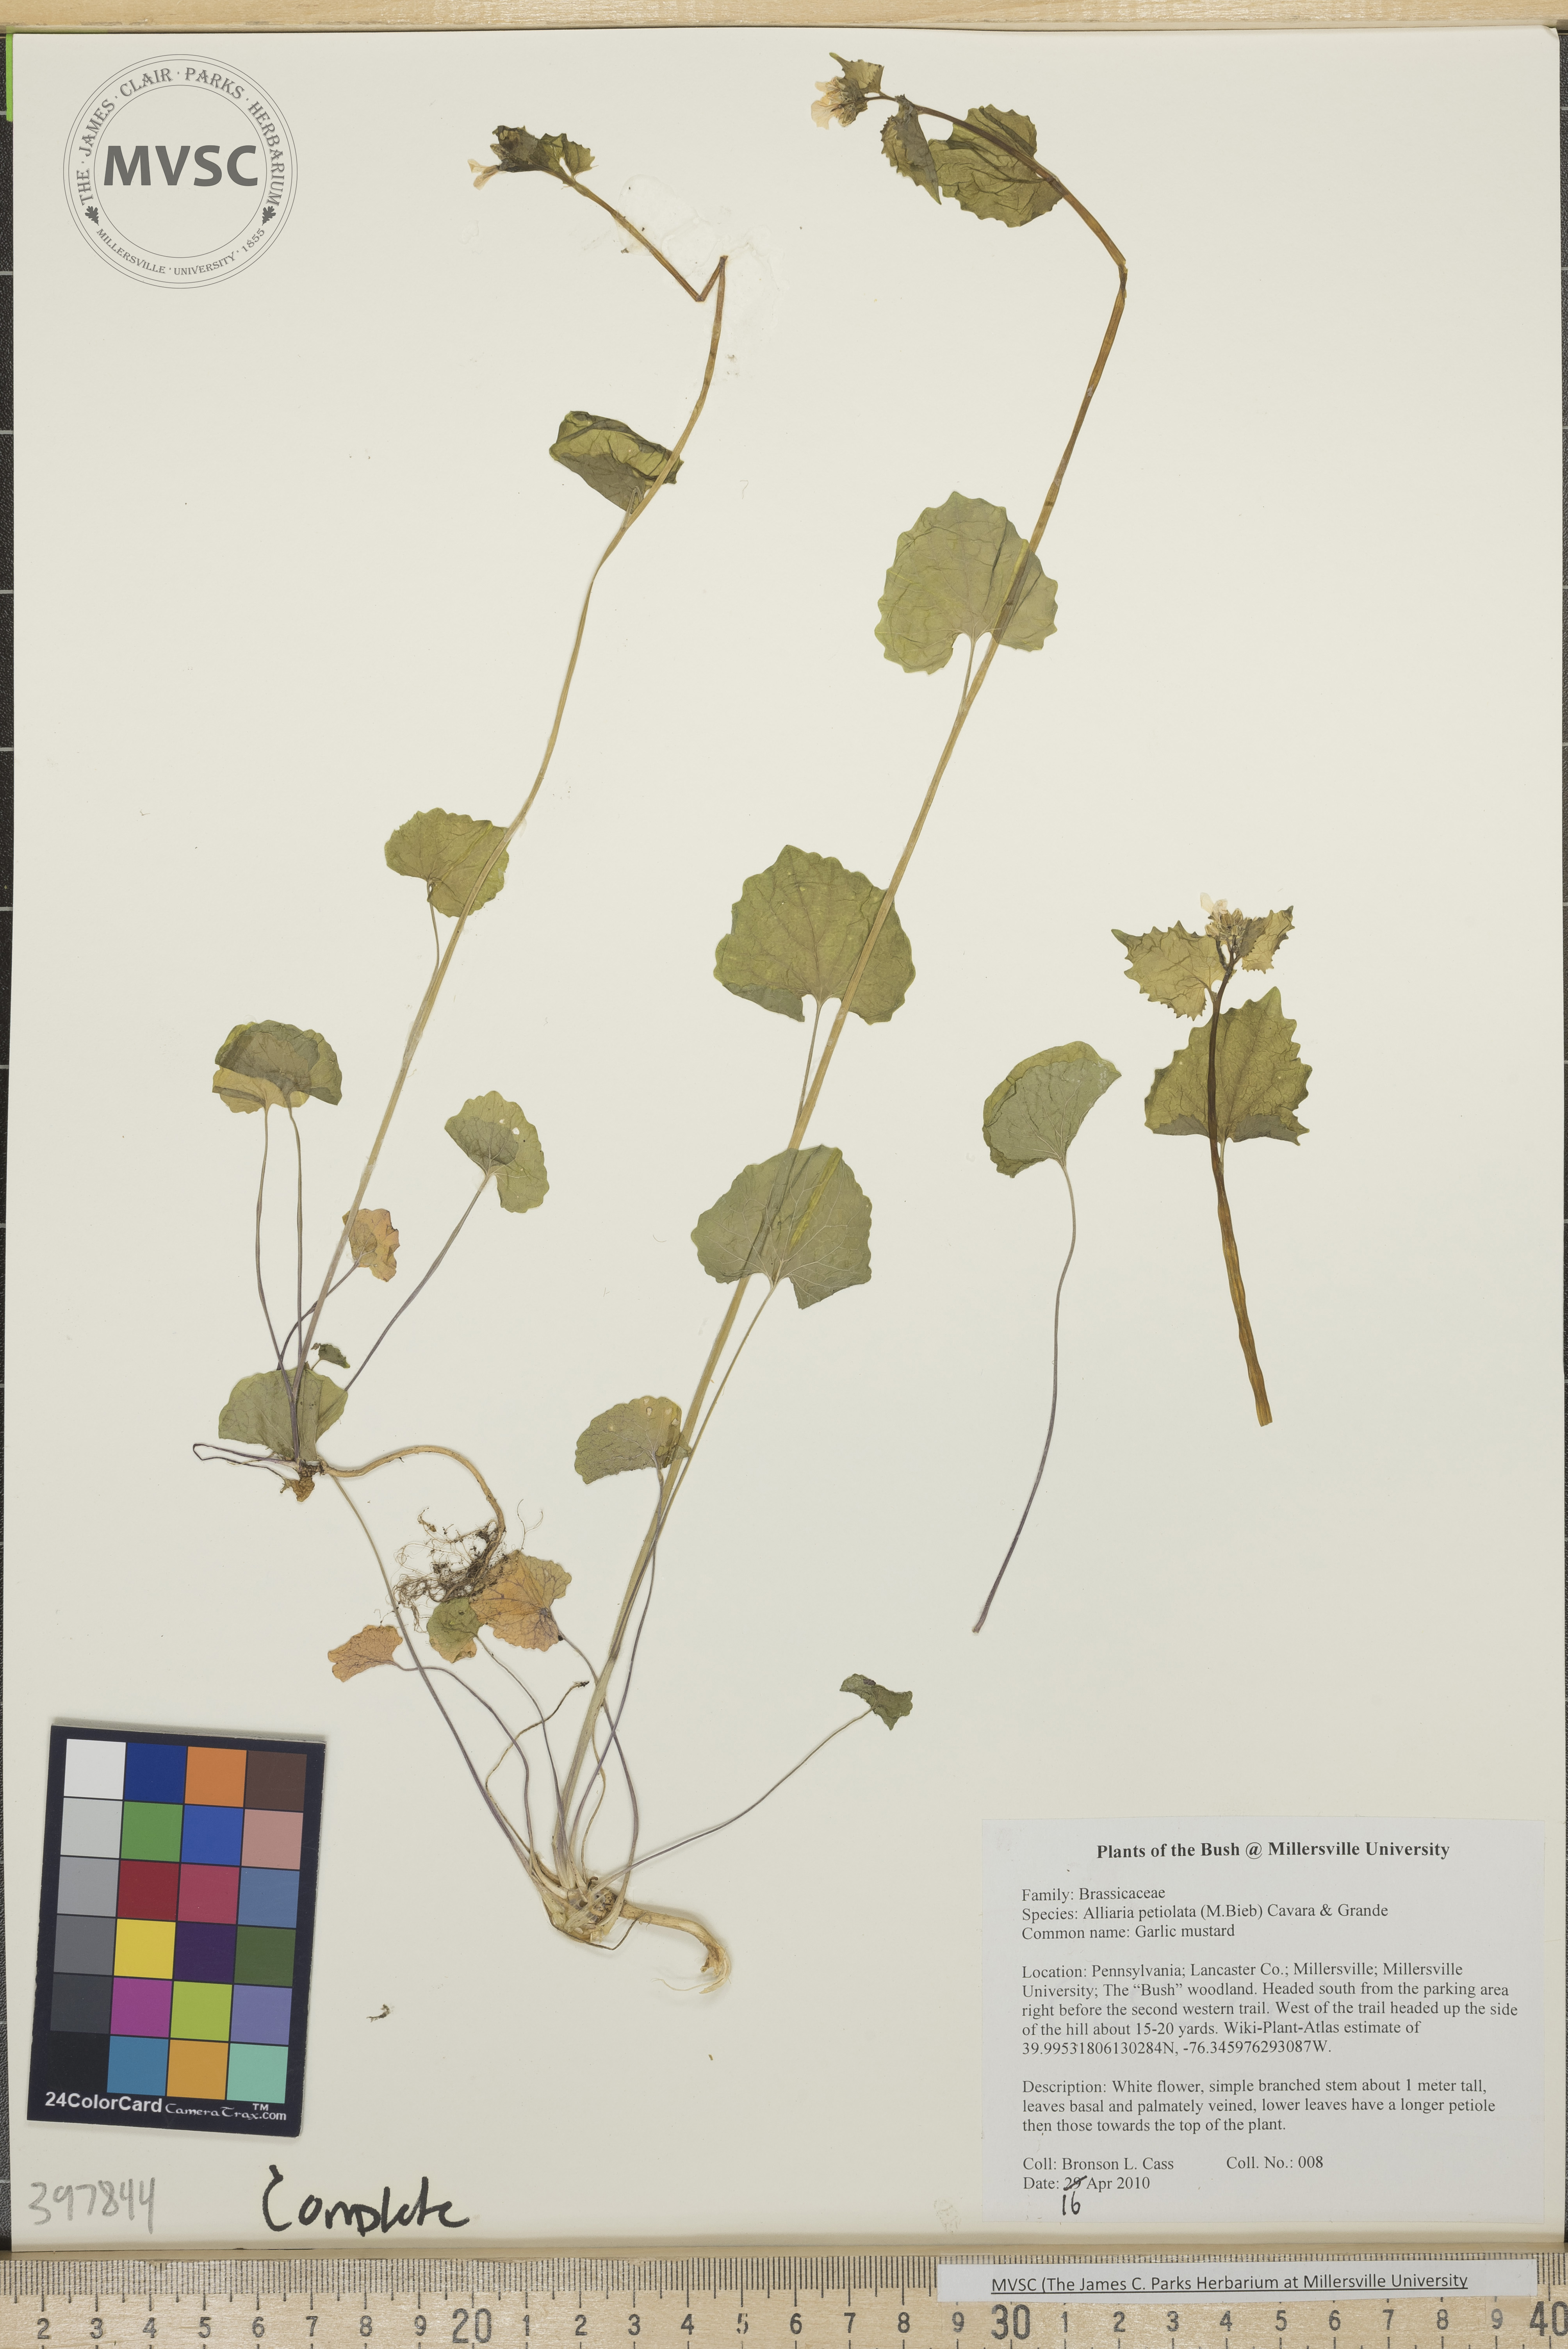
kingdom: Plantae
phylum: Tracheophyta
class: Magnoliopsida
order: Brassicales
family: Brassicaceae
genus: Alliaria
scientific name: Alliaria petiolata
